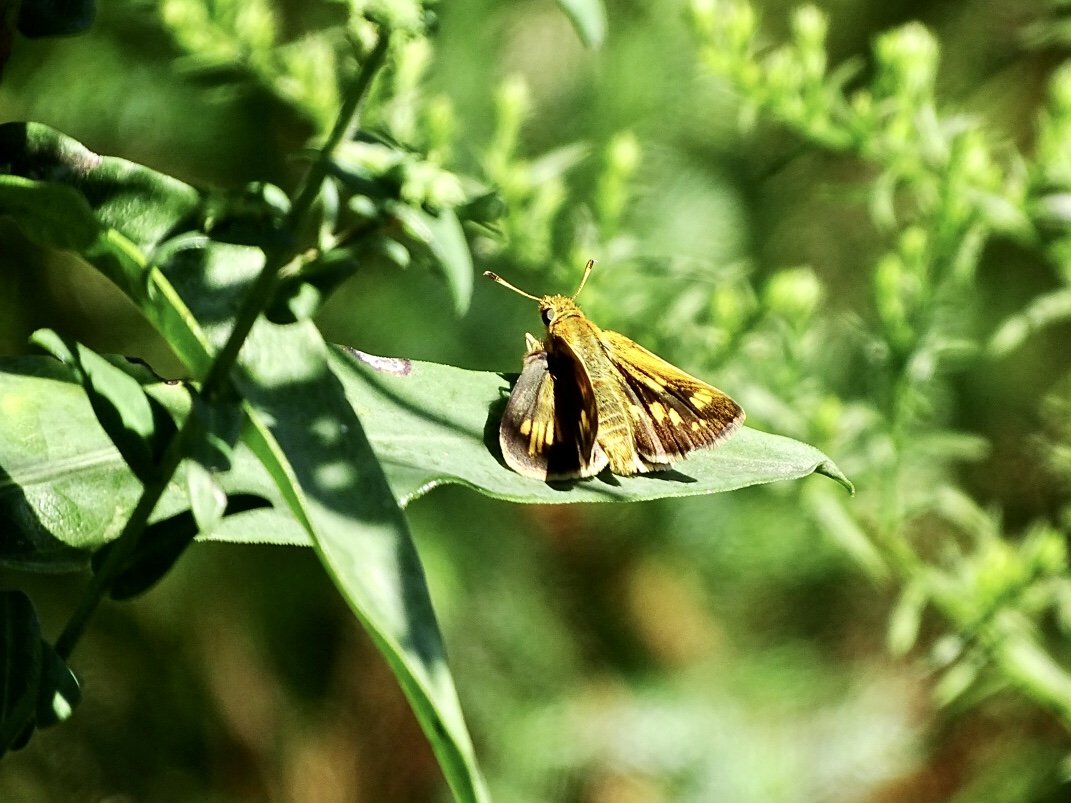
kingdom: Animalia
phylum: Arthropoda
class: Insecta
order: Lepidoptera
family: Hesperiidae
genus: Polites
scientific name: Polites coras
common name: Peck's Skipper
